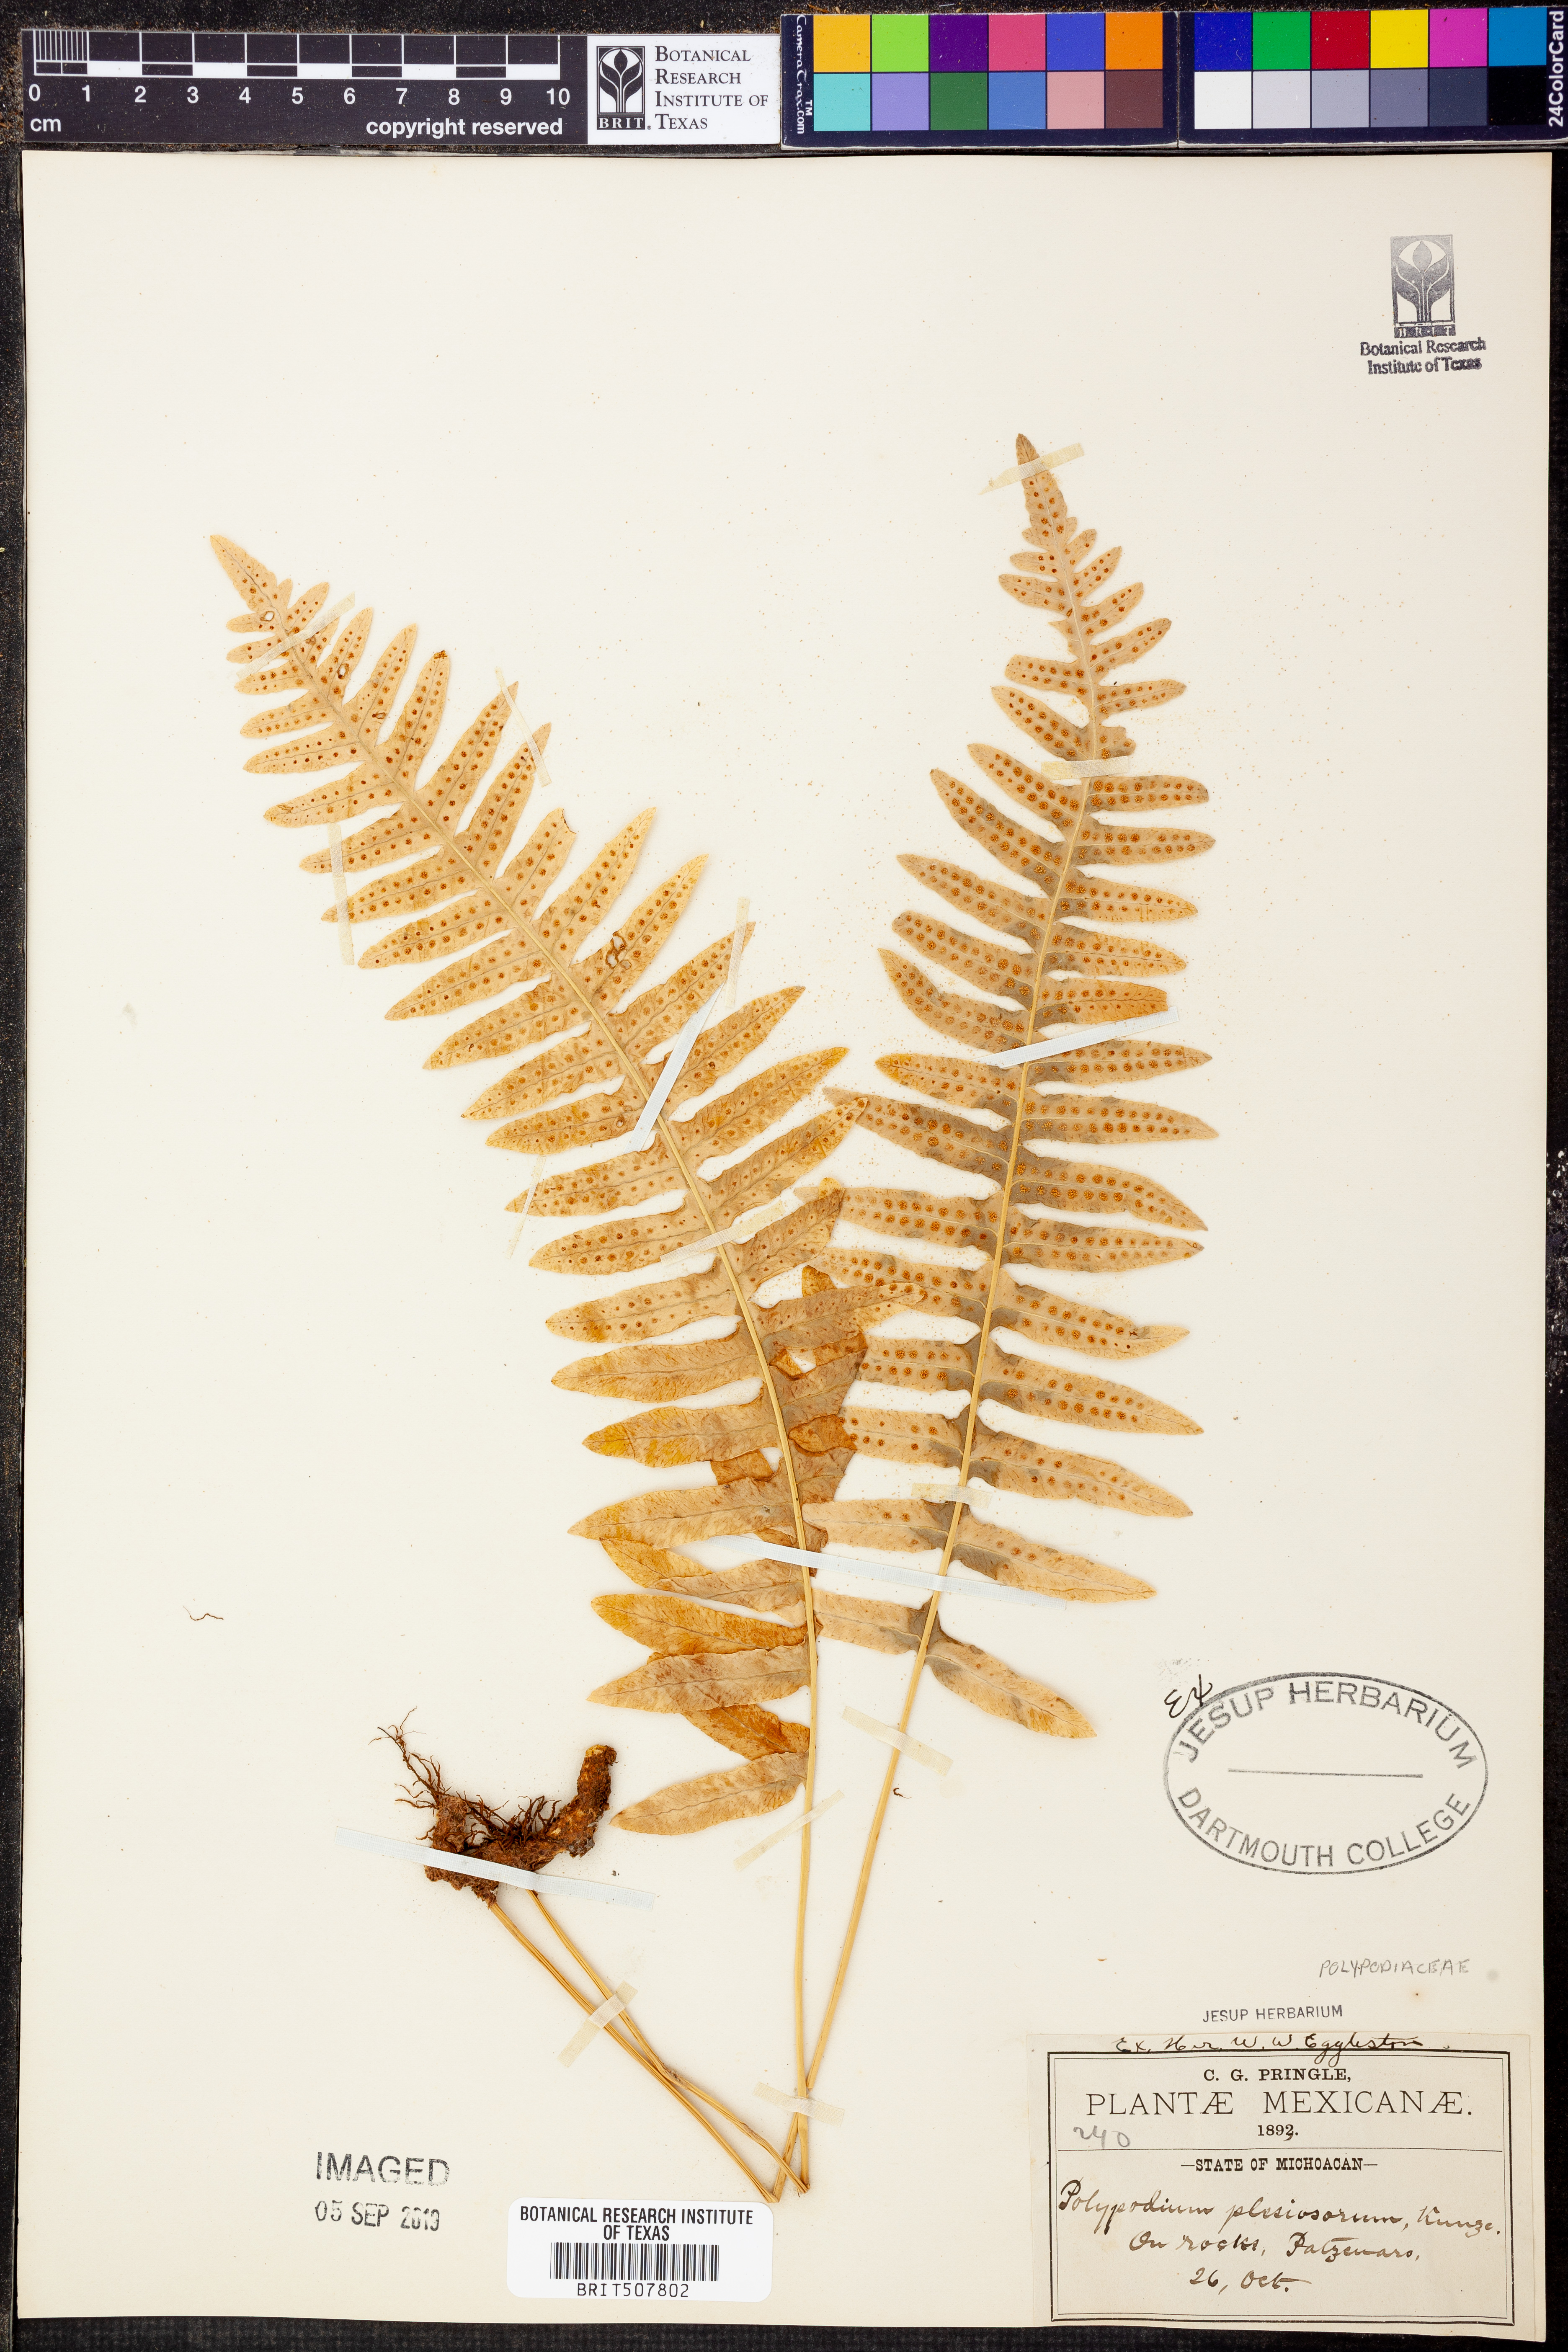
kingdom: Plantae
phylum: Tracheophyta
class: Polypodiopsida
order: Polypodiales
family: Polypodiaceae
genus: Polypodium
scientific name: Polypodium plesiosorum
